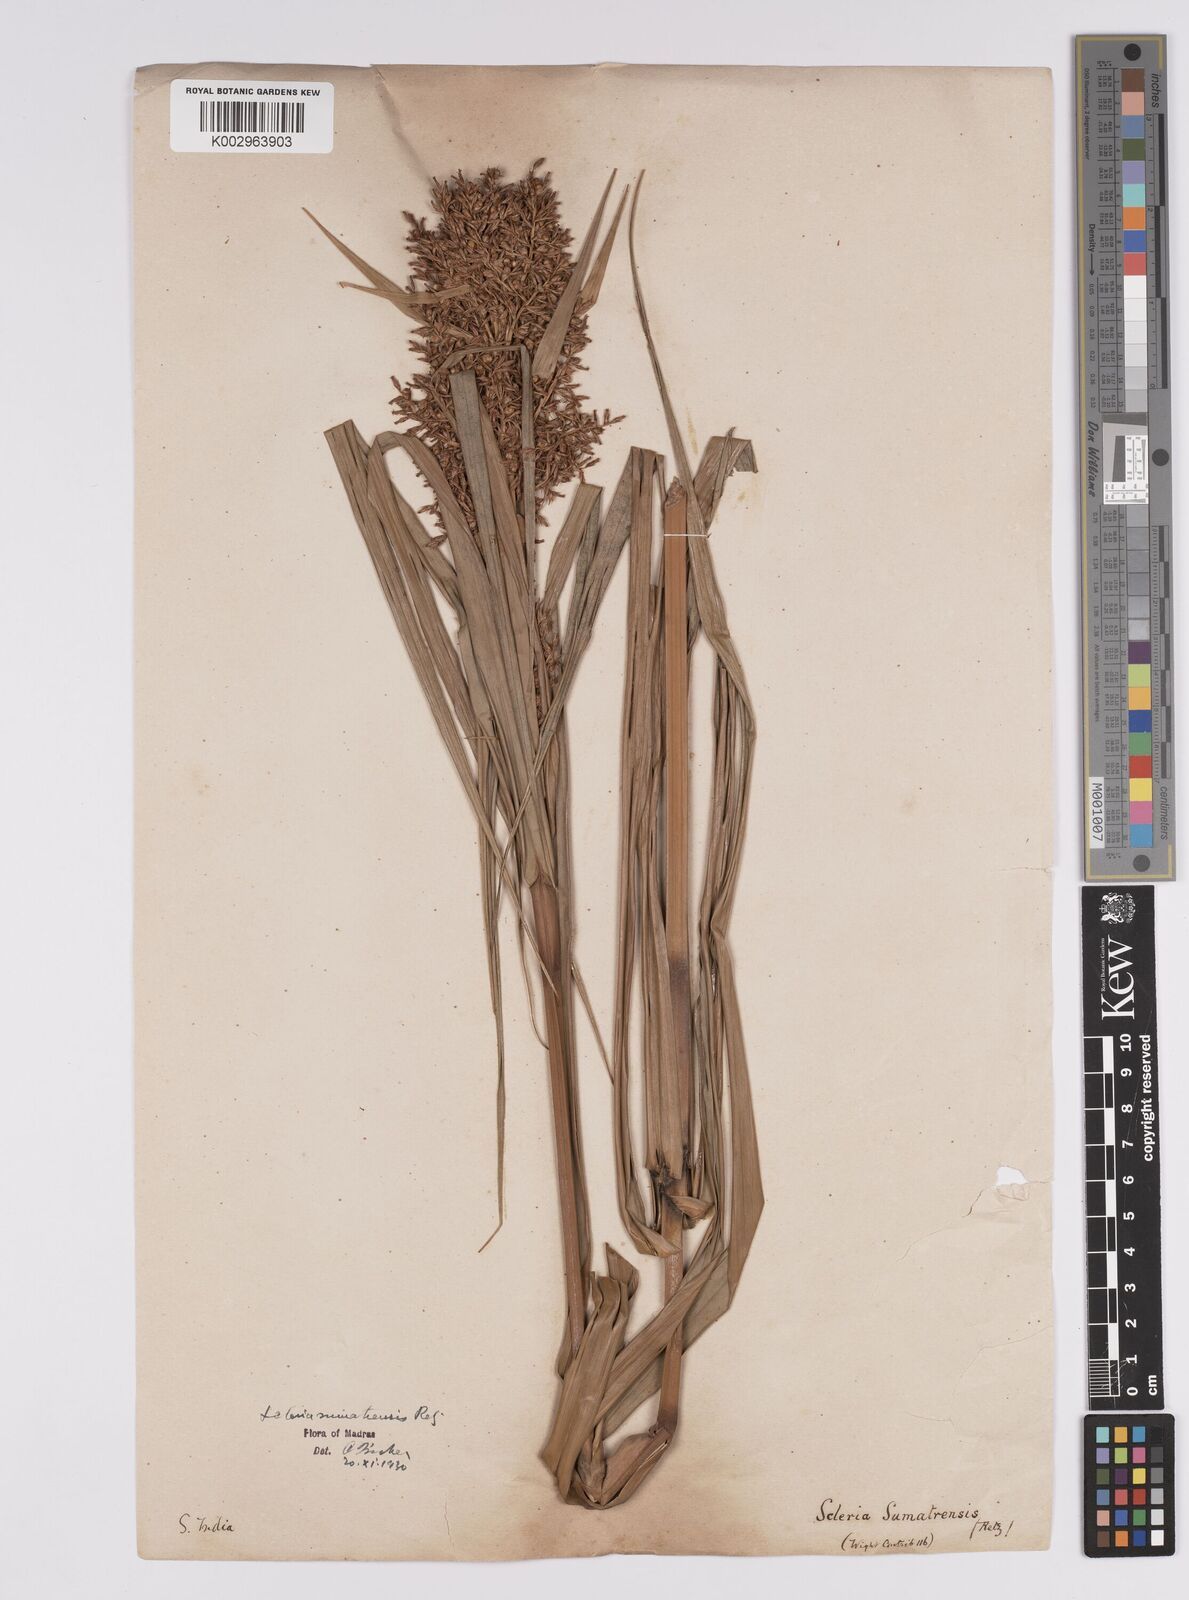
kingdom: Plantae
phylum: Tracheophyta
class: Liliopsida
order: Poales
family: Cyperaceae
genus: Scleria
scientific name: Scleria sumatrensis
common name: Sumatran scleria
